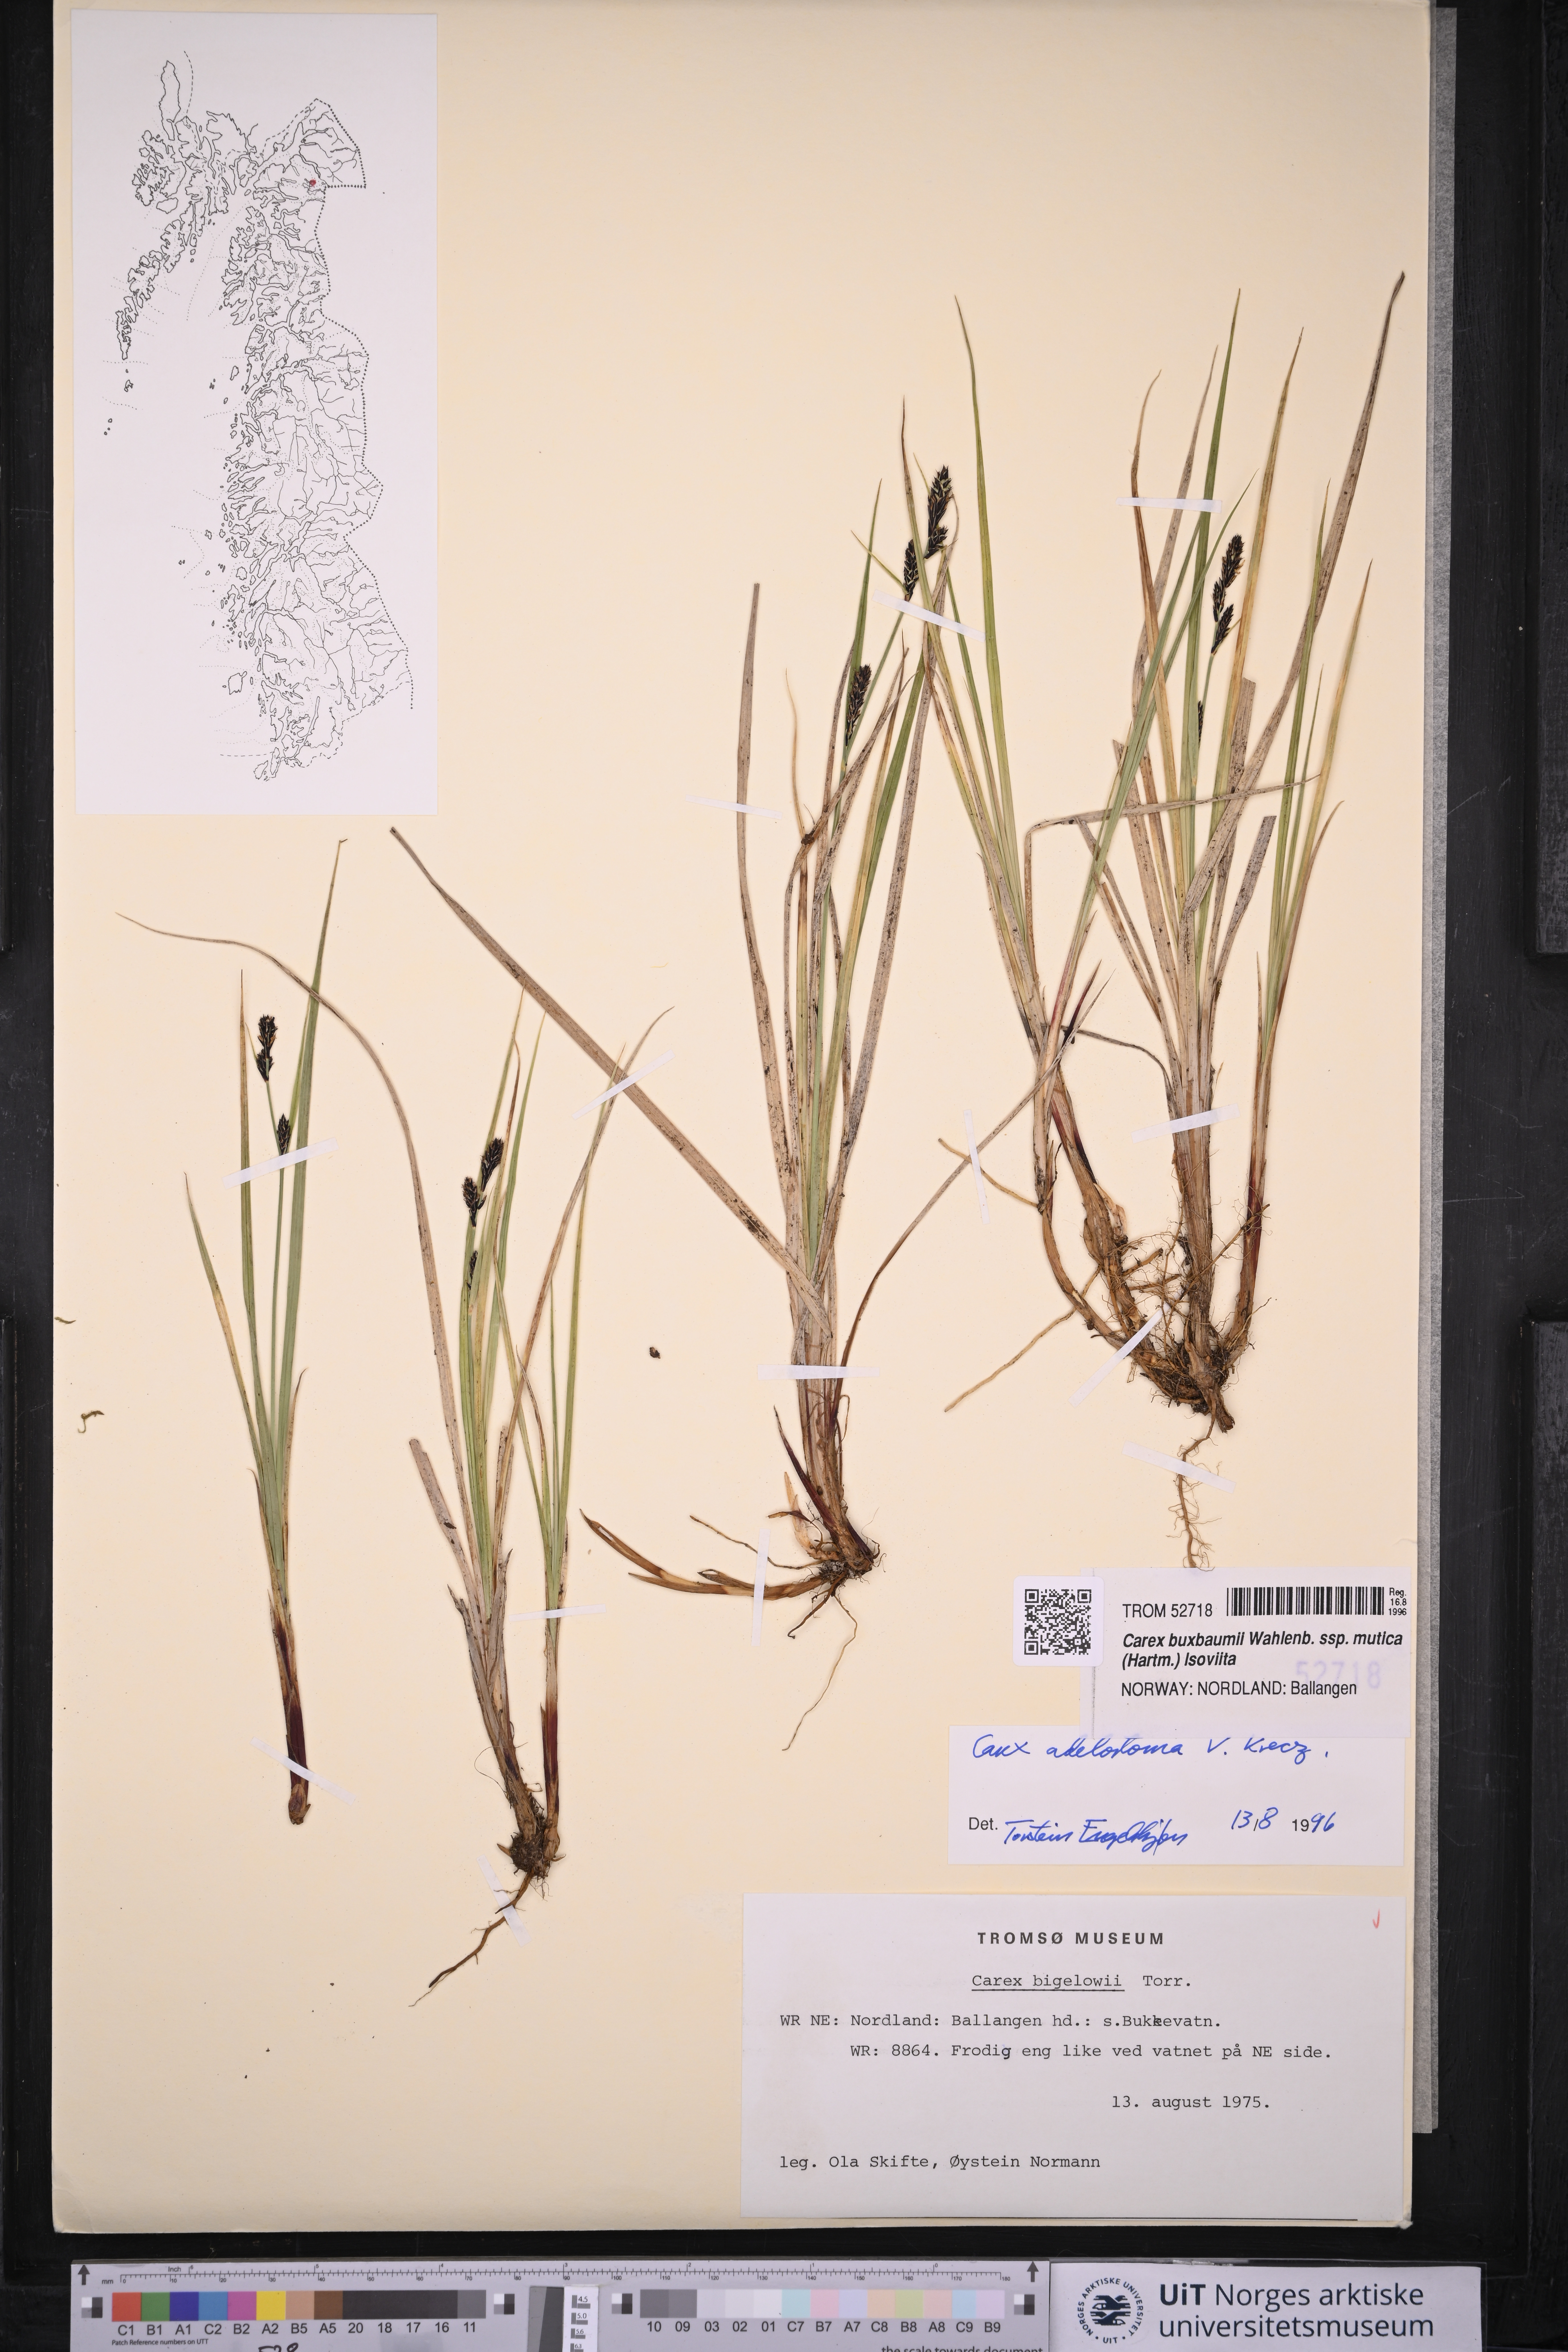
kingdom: Plantae
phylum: Tracheophyta
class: Liliopsida
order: Poales
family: Cyperaceae
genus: Carex
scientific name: Carex adelostoma
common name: Circumpolar sedge
